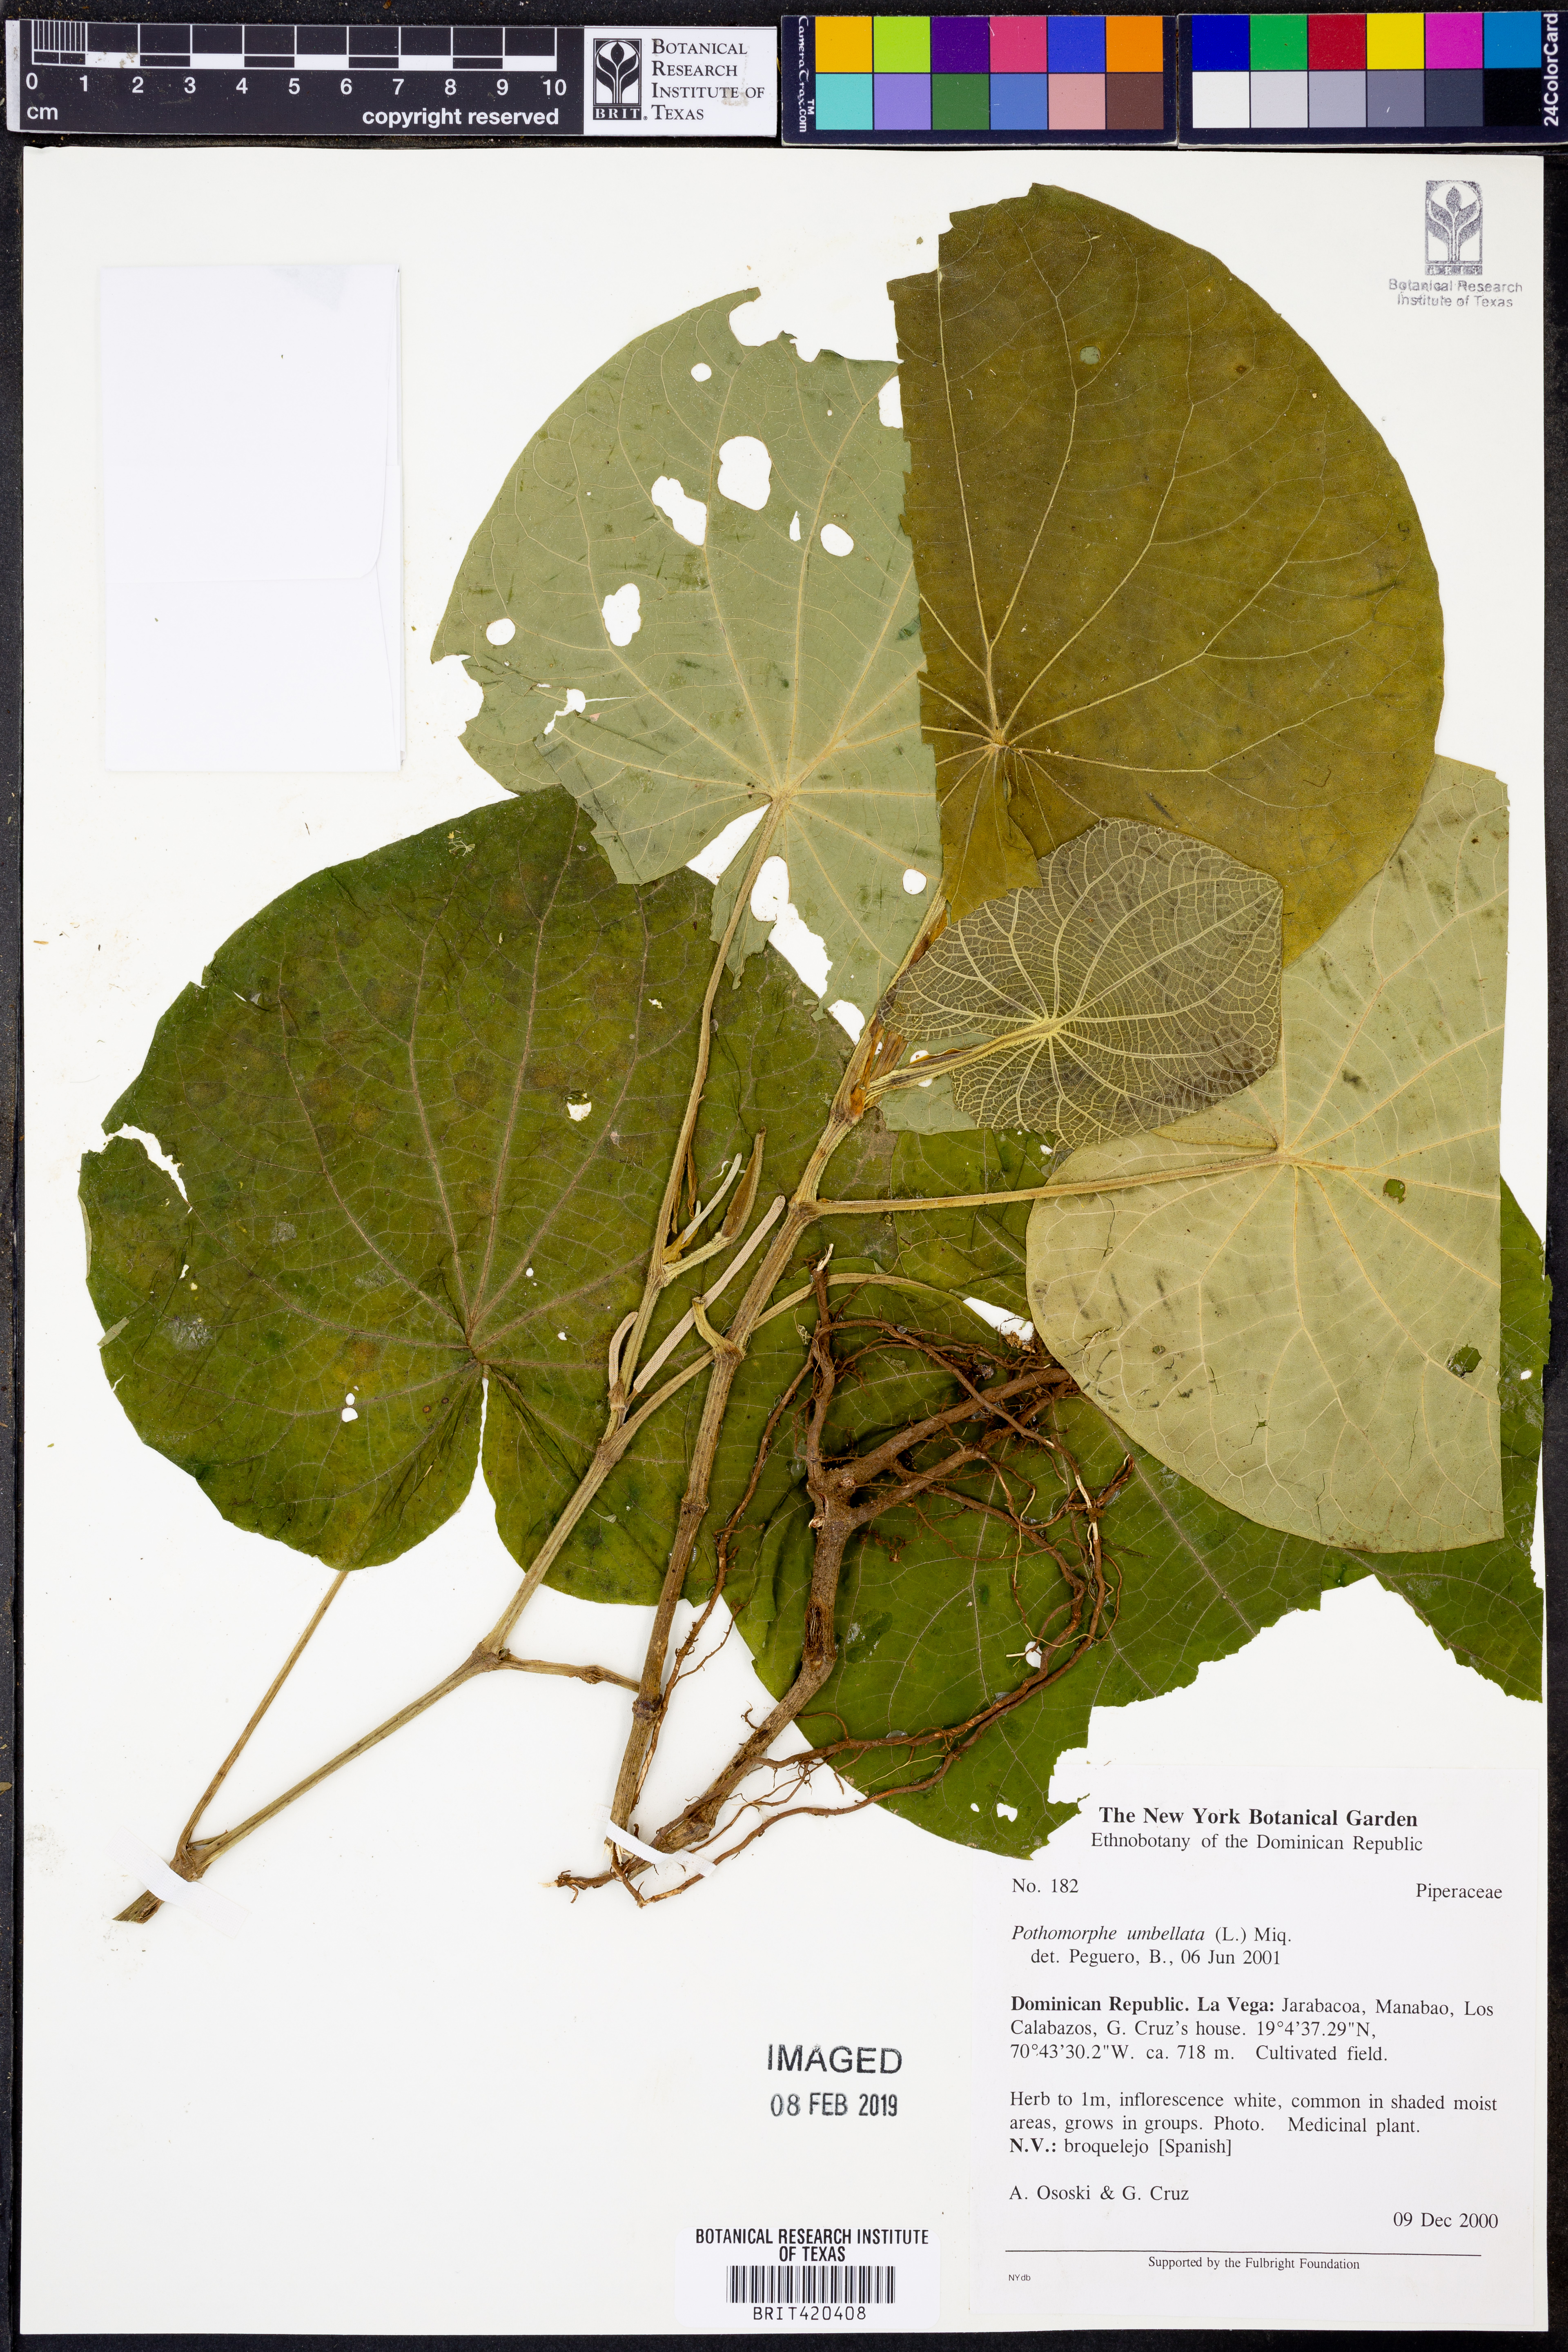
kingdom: Plantae
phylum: Tracheophyta
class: Magnoliopsida
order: Piperales
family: Piperaceae
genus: Piper
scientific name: Piper umbellatum
